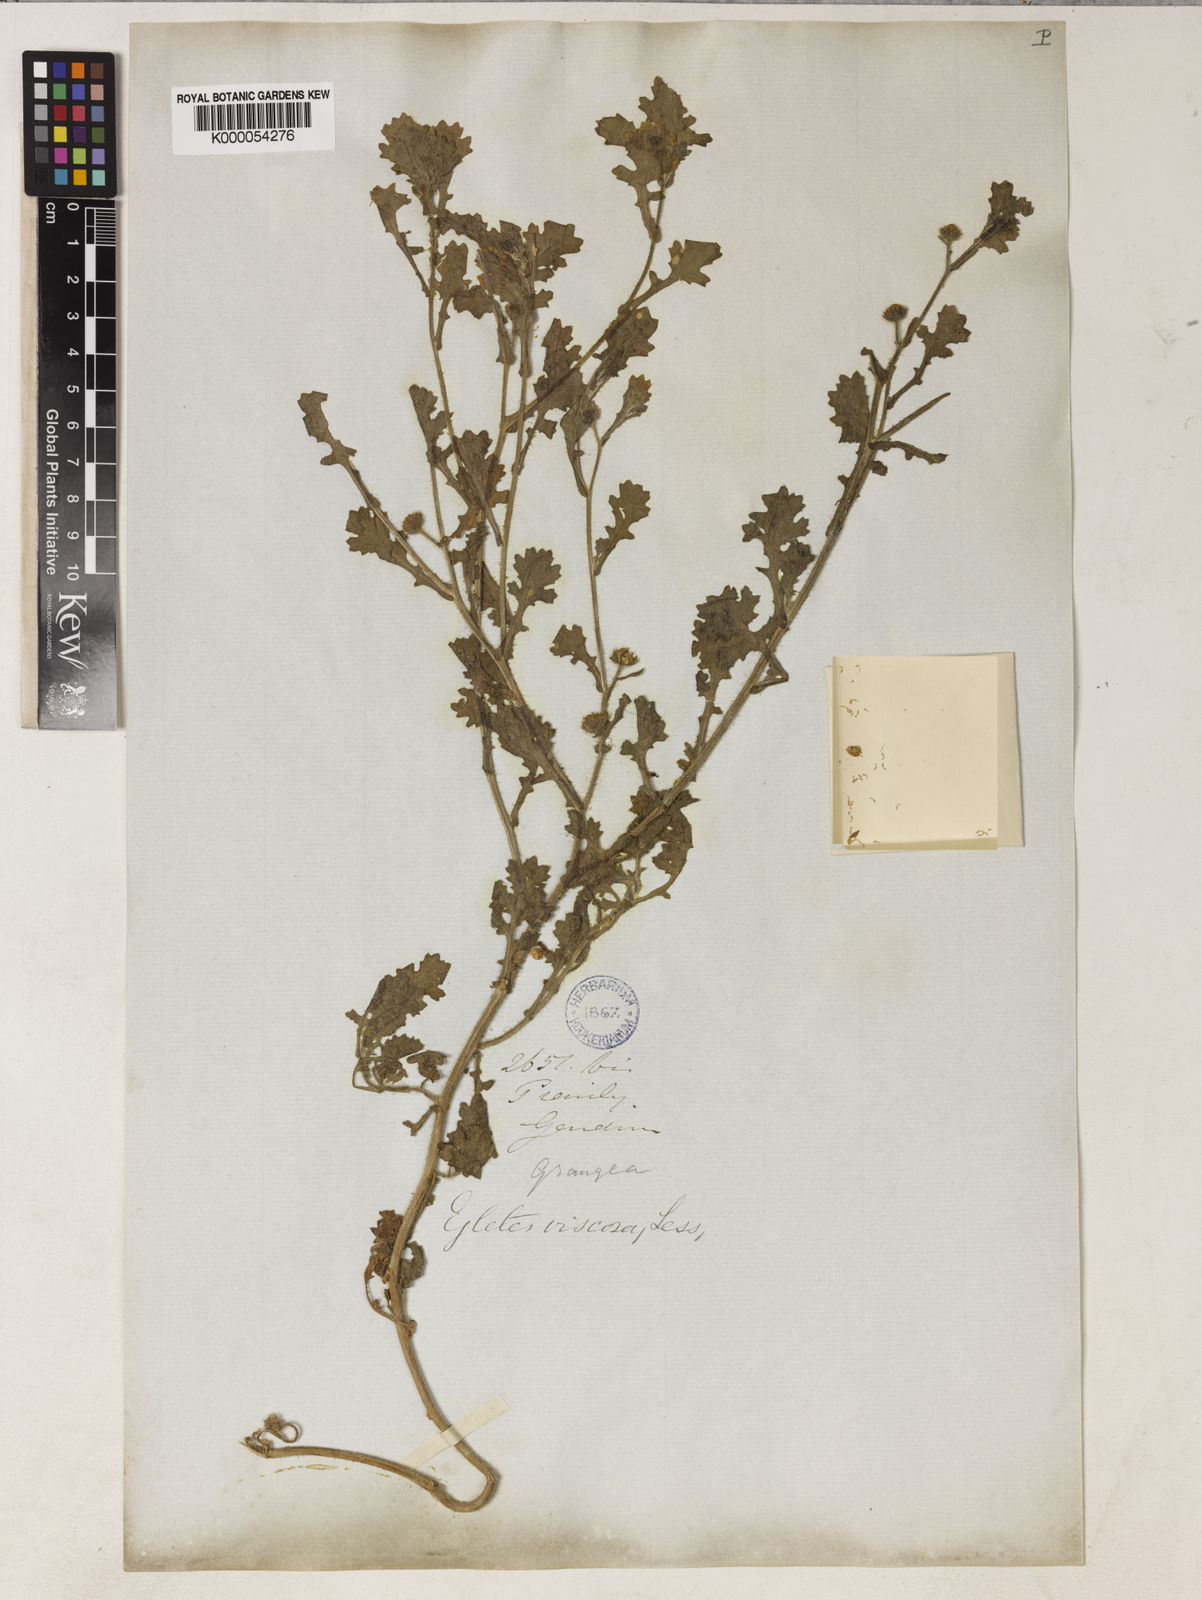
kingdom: Plantae
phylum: Tracheophyta
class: Magnoliopsida
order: Asterales
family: Asteraceae
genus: Egletes
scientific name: Egletes viscosa
